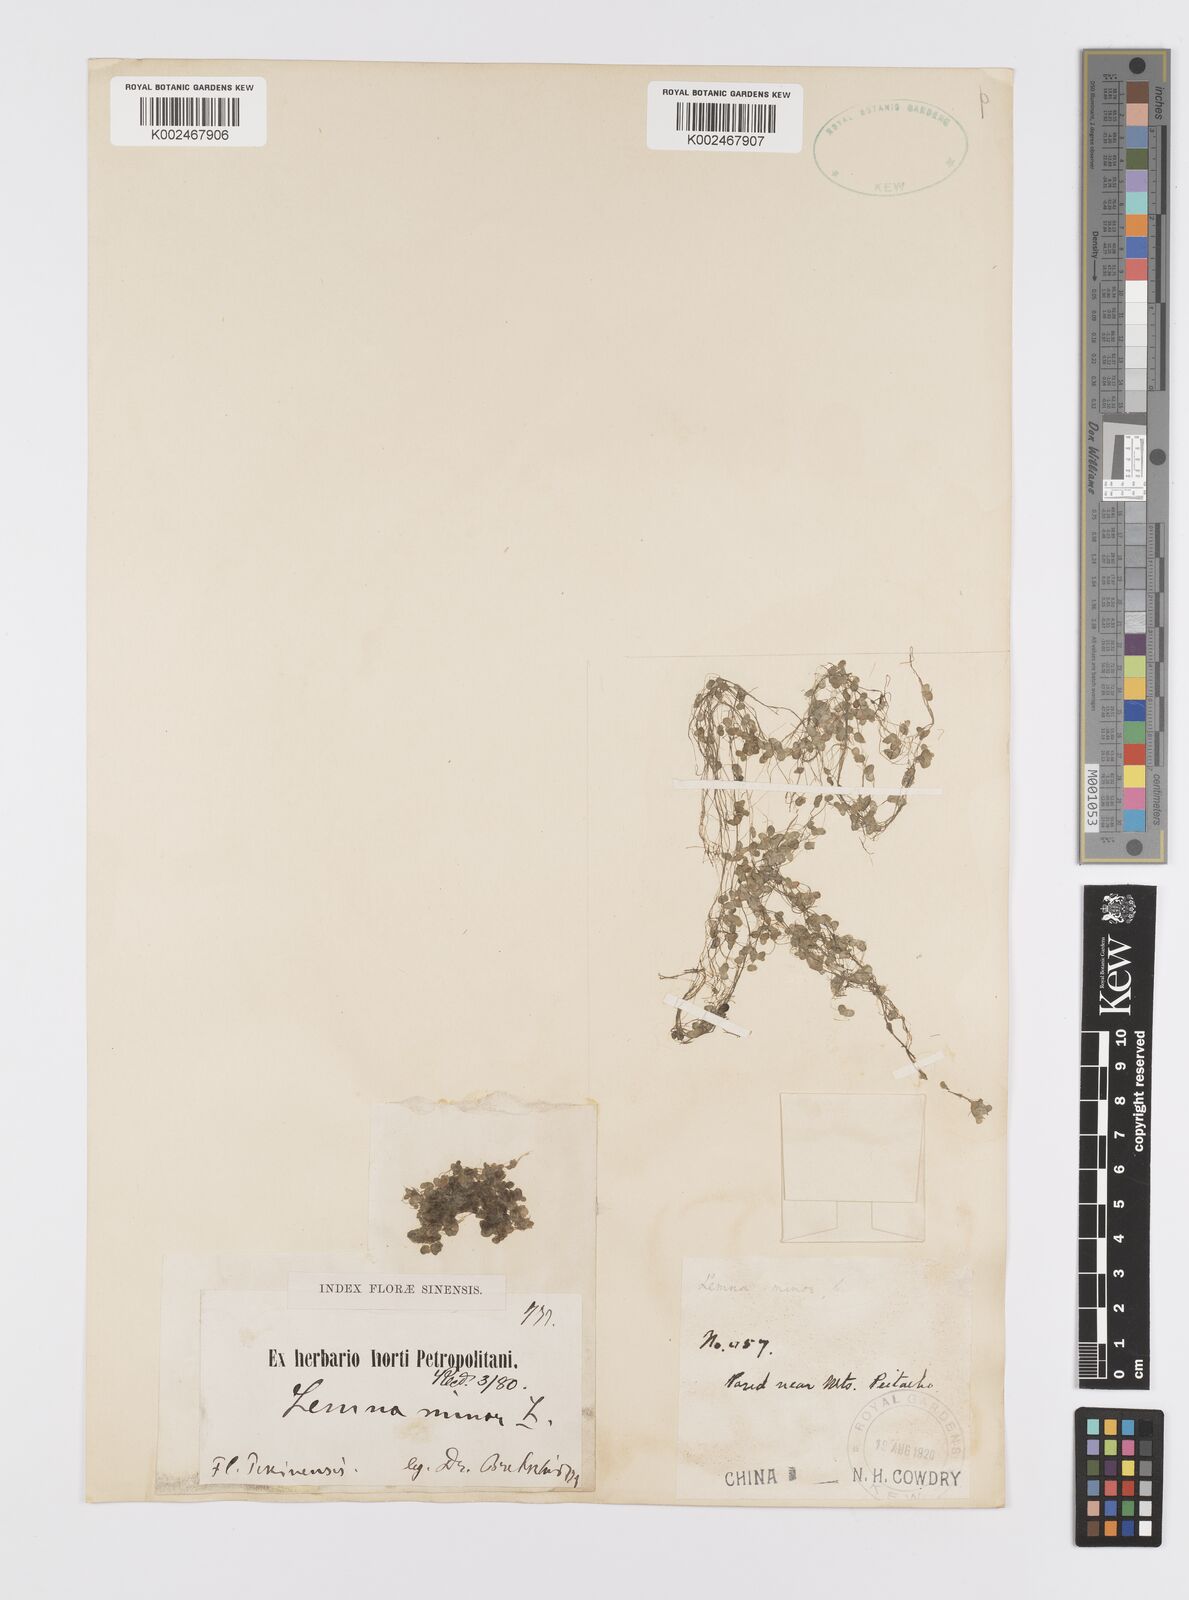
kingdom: Plantae
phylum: Tracheophyta
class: Liliopsida
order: Alismatales
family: Araceae
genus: Lemna
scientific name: Lemna minor
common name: Common duckweed
